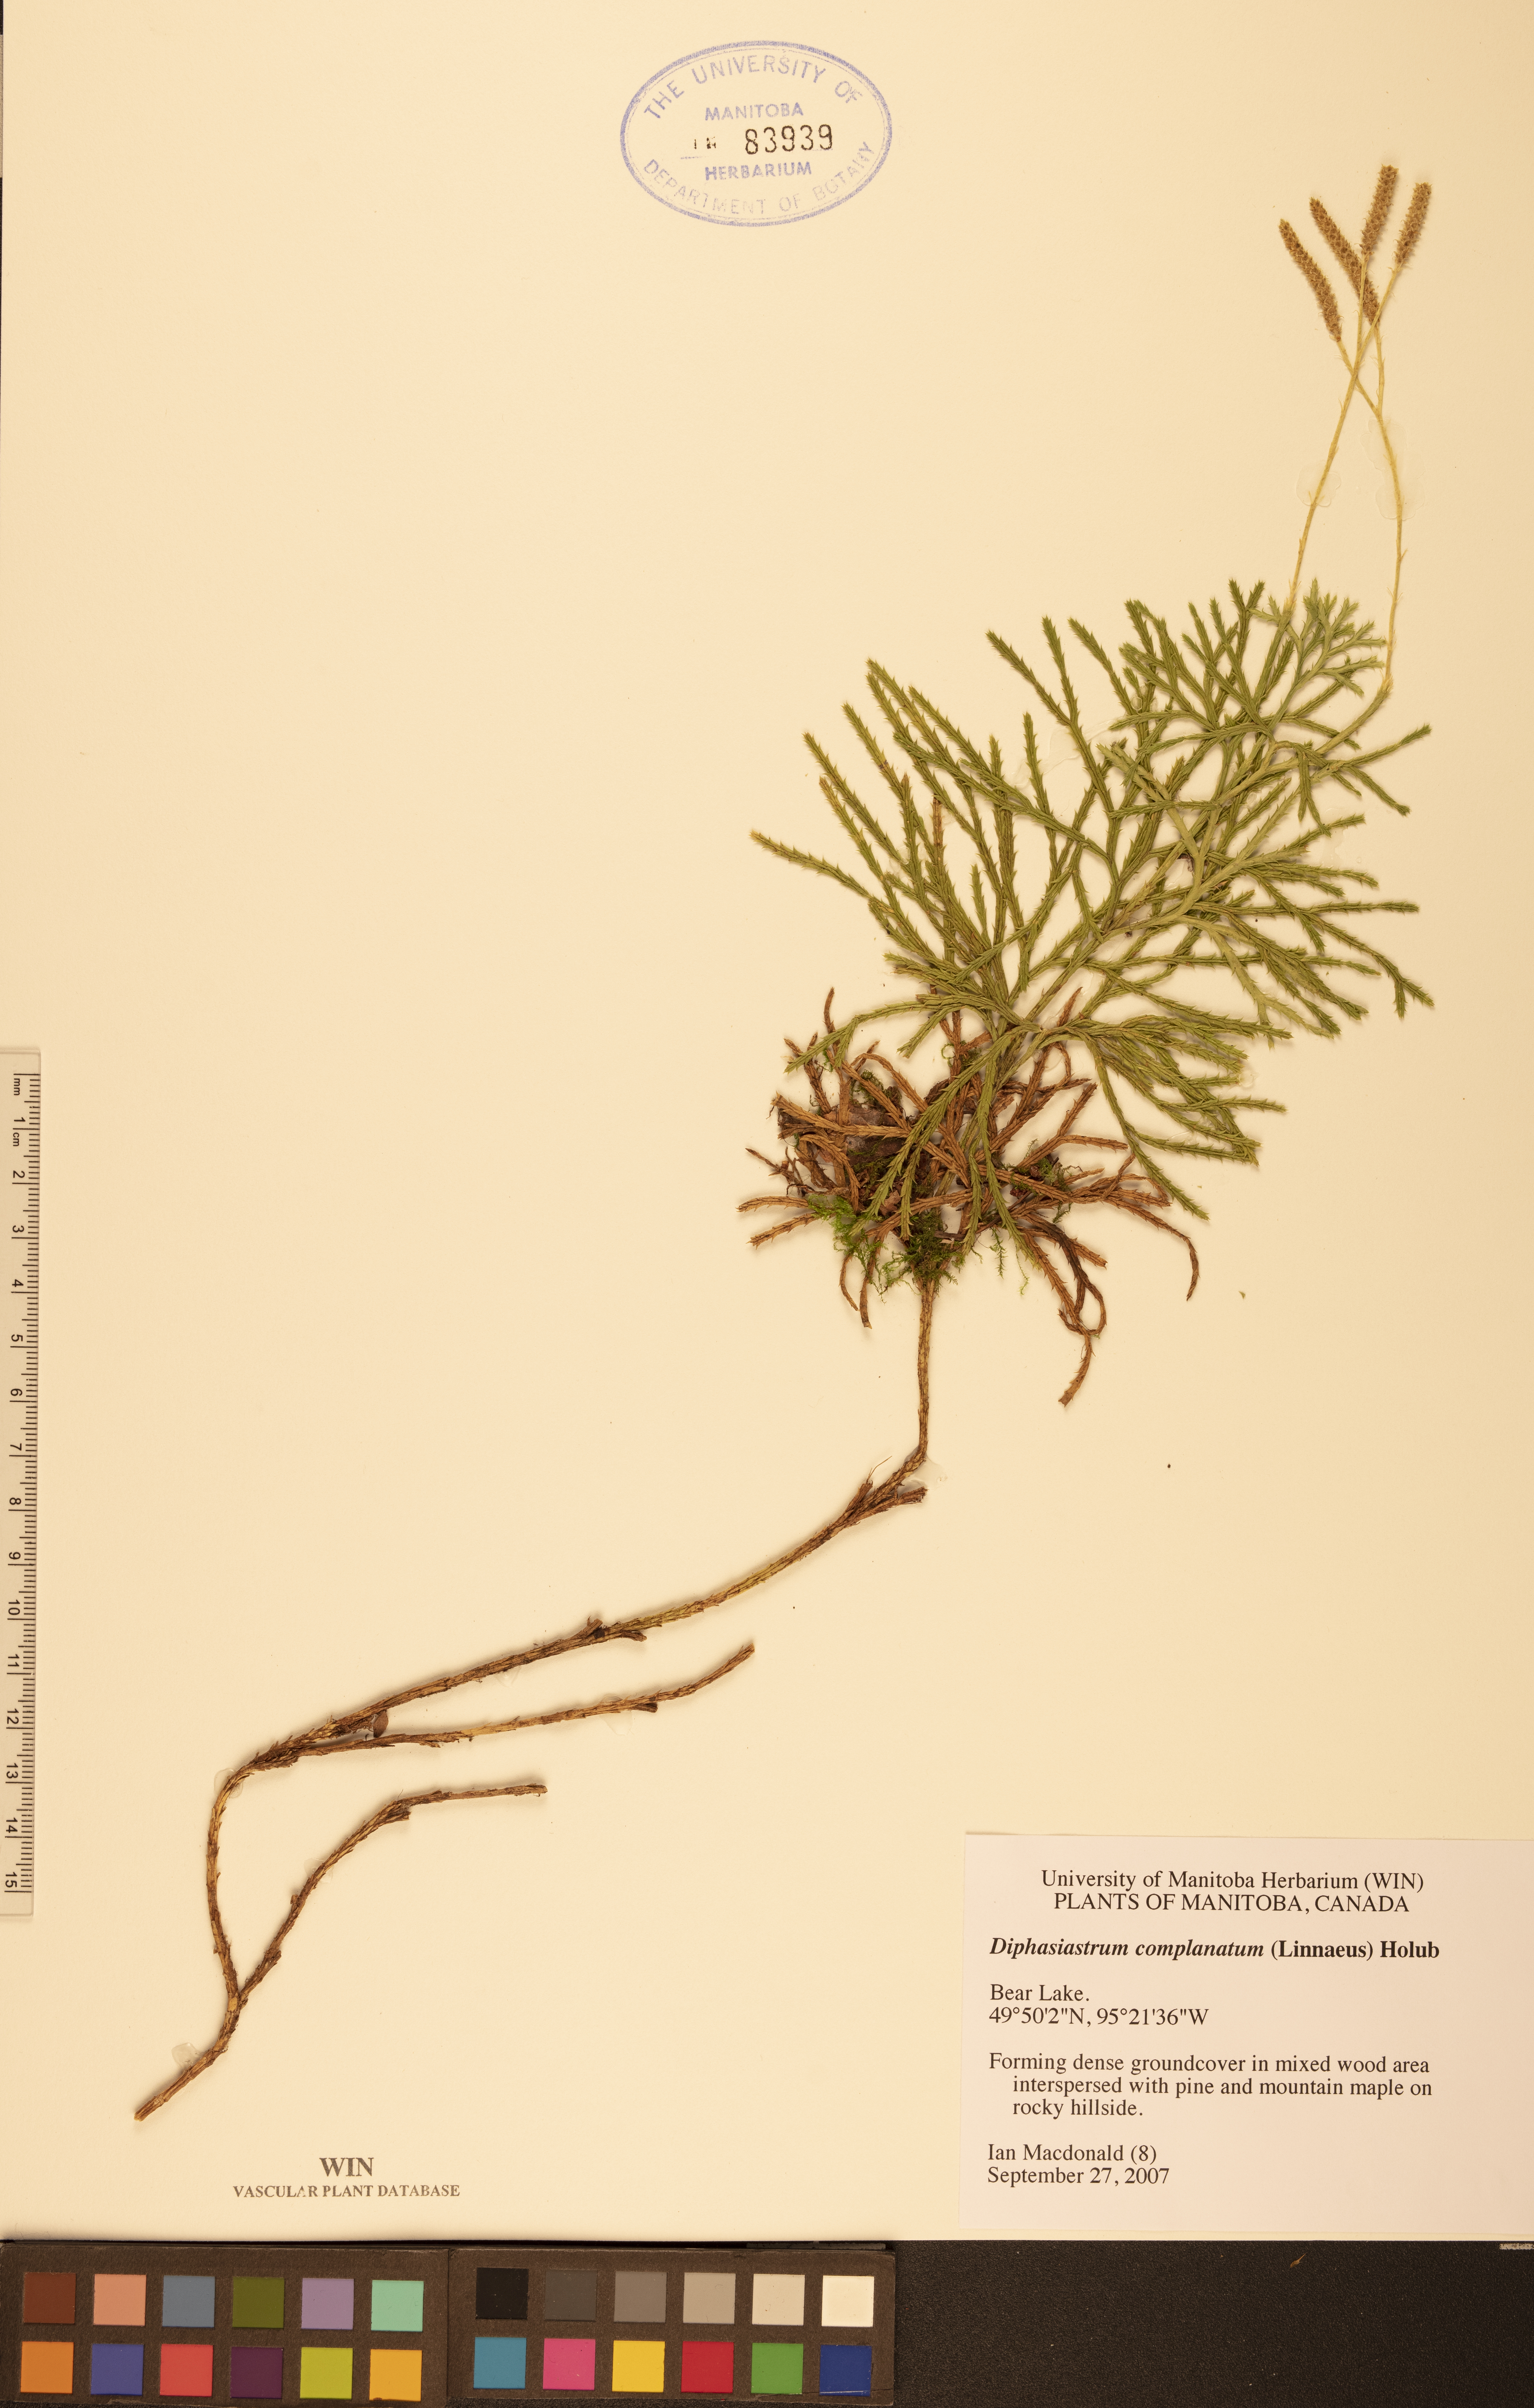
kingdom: Plantae
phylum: Tracheophyta
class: Lycopodiopsida
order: Lycopodiales
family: Lycopodiaceae
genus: Diphasiastrum
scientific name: Diphasiastrum complanatum
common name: Northern running-pine
